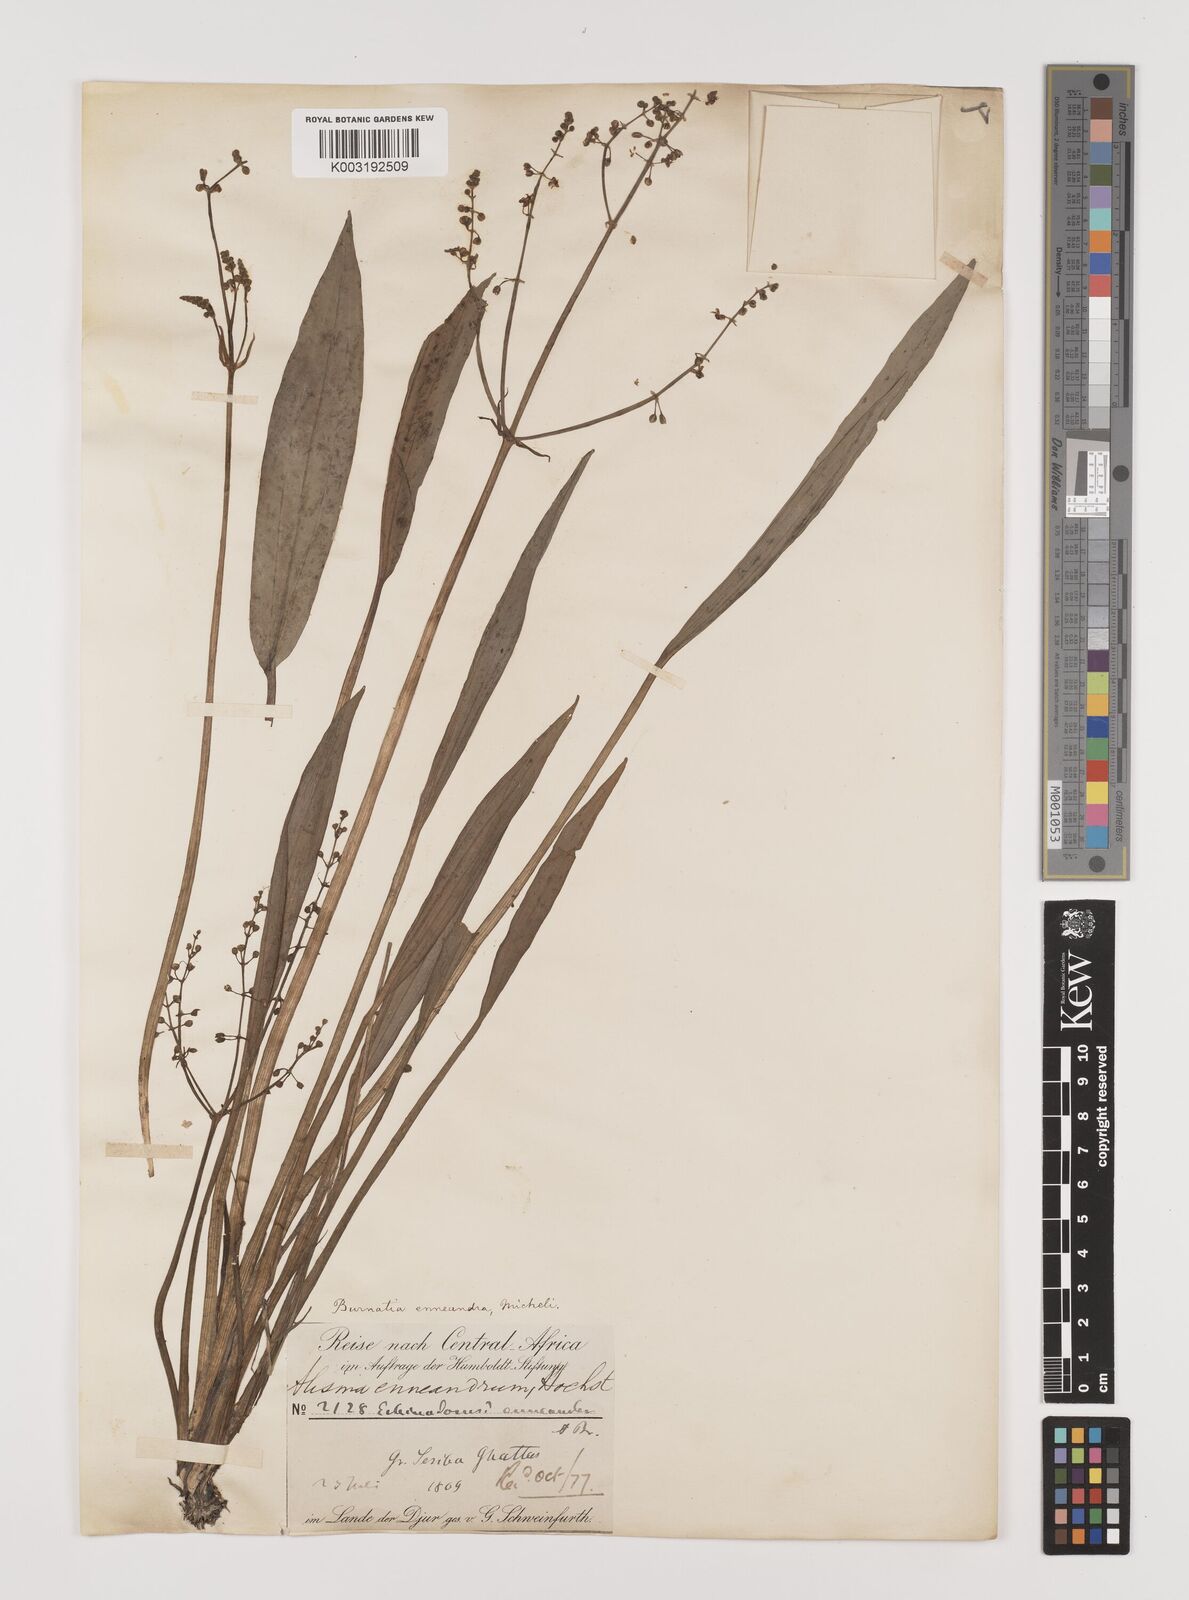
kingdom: Plantae
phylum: Tracheophyta
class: Liliopsida
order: Alismatales
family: Alismataceae
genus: Burnatia
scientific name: Burnatia enneandra
